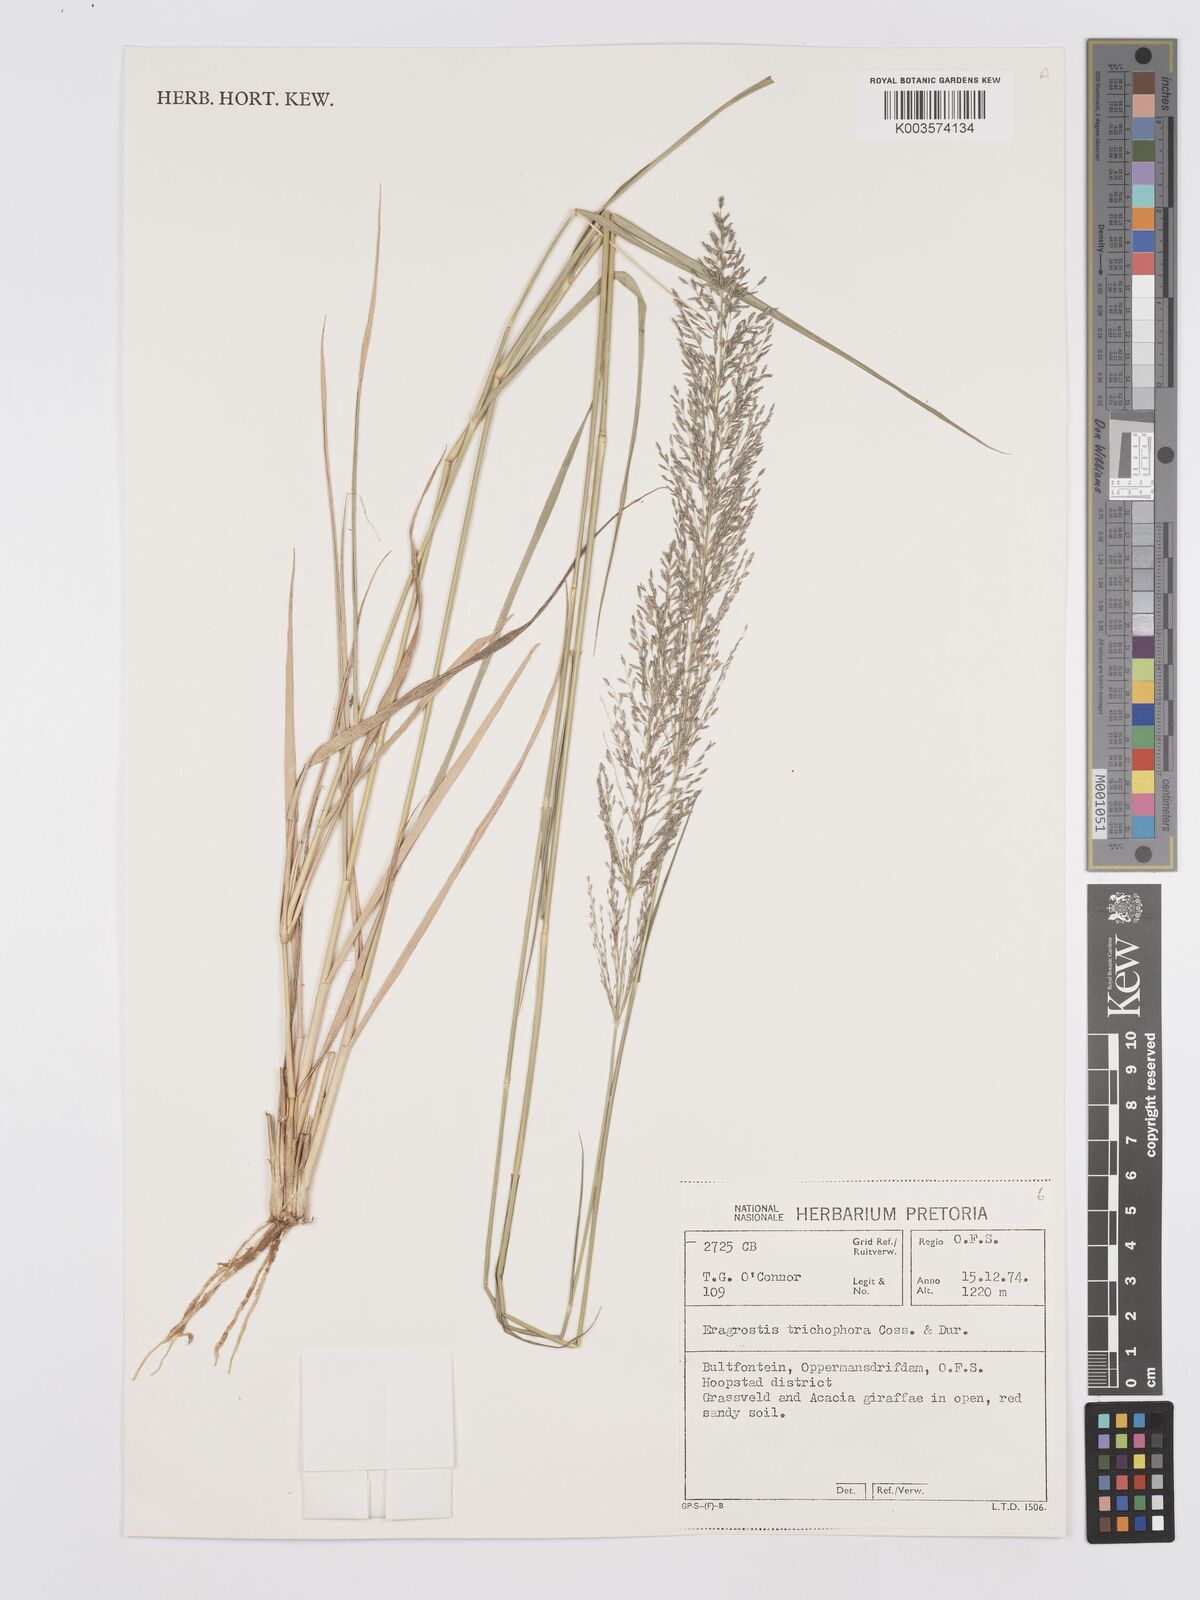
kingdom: Plantae
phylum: Tracheophyta
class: Liliopsida
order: Poales
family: Poaceae
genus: Eragrostis
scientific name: Eragrostis cylindriflora
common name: Cylinderflower lovegrass
